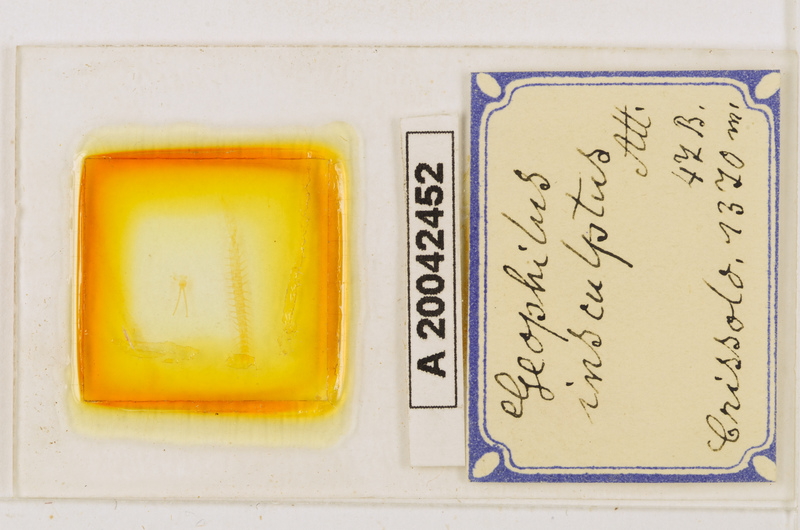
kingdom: Animalia
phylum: Arthropoda
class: Chilopoda
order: Geophilomorpha
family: Geophilidae
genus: Geophilus
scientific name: Geophilus insculptus
